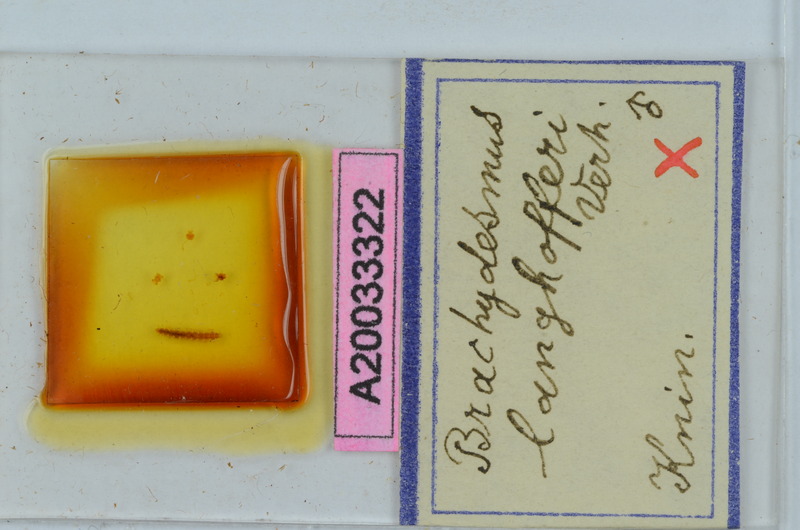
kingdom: Animalia
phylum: Arthropoda
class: Diplopoda
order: Polydesmida
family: Polydesmidae
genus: Brachydesmus
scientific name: Brachydesmus langhofferi
